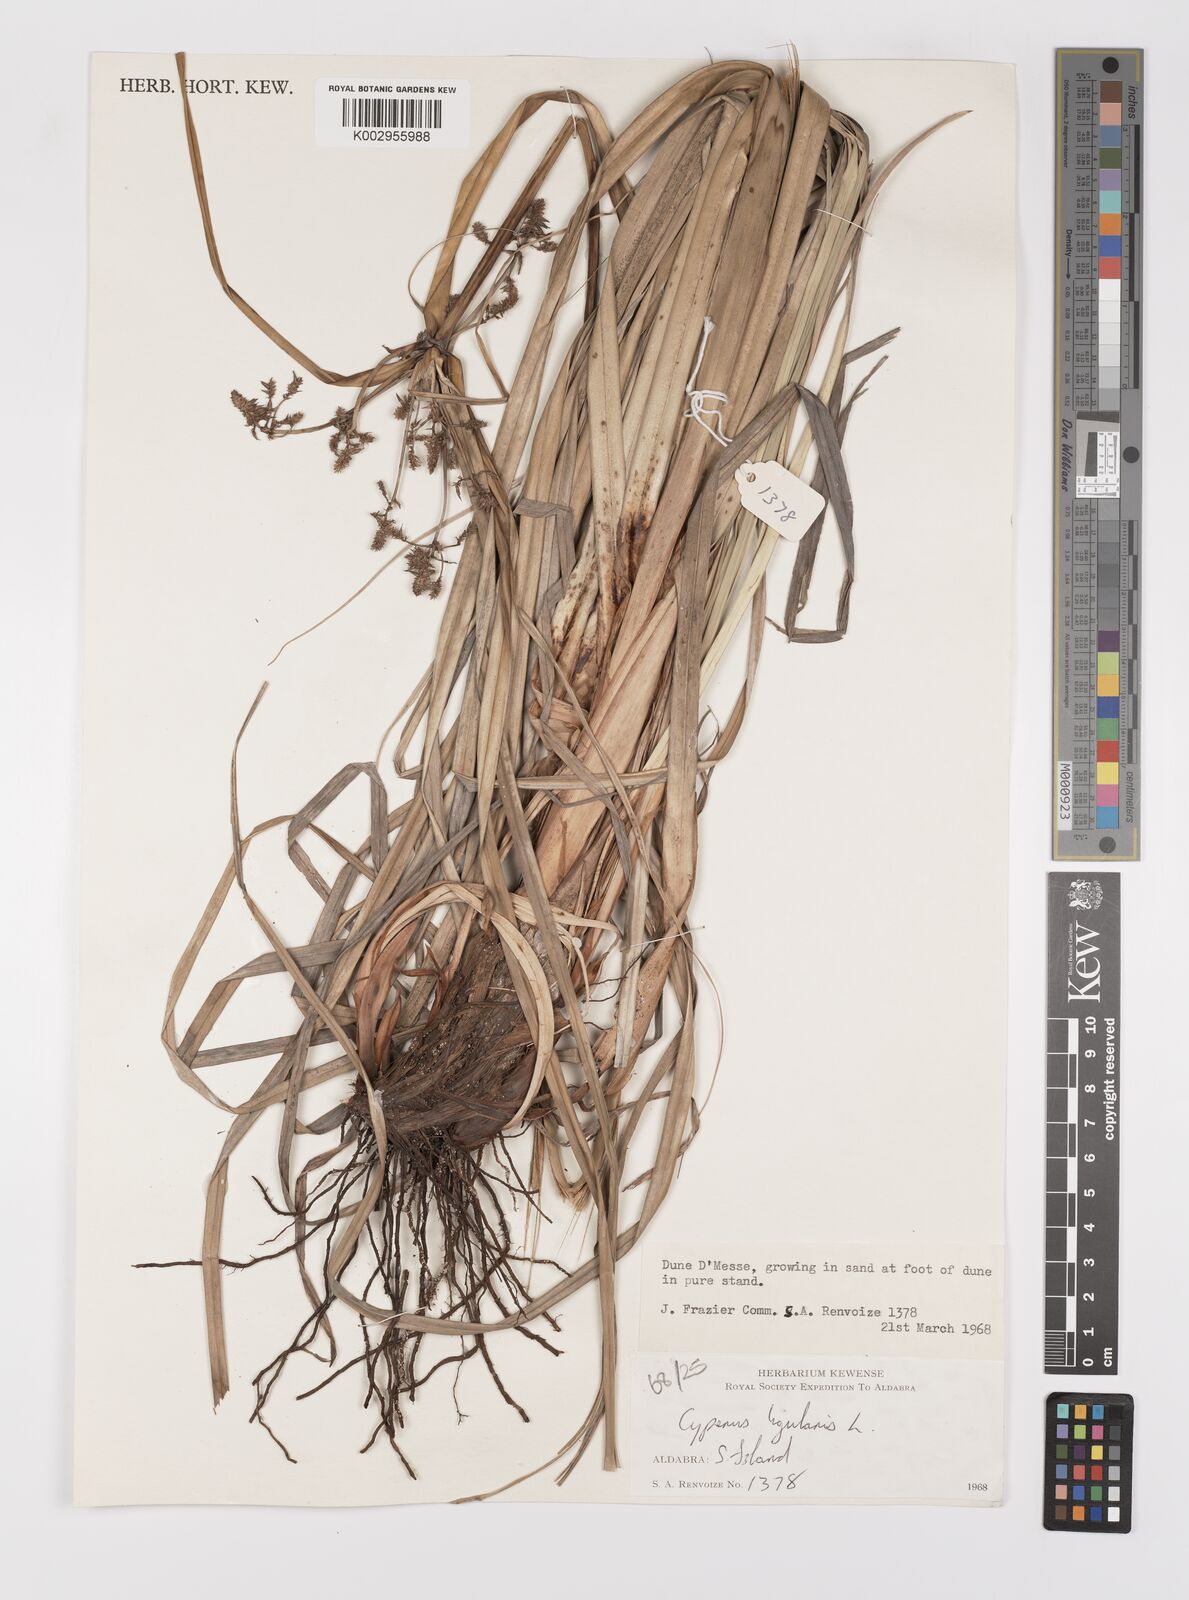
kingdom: Plantae
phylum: Tracheophyta
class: Liliopsida
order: Poales
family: Cyperaceae
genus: Cyperus
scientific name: Cyperus ligularis
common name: Swamp flat sedge
